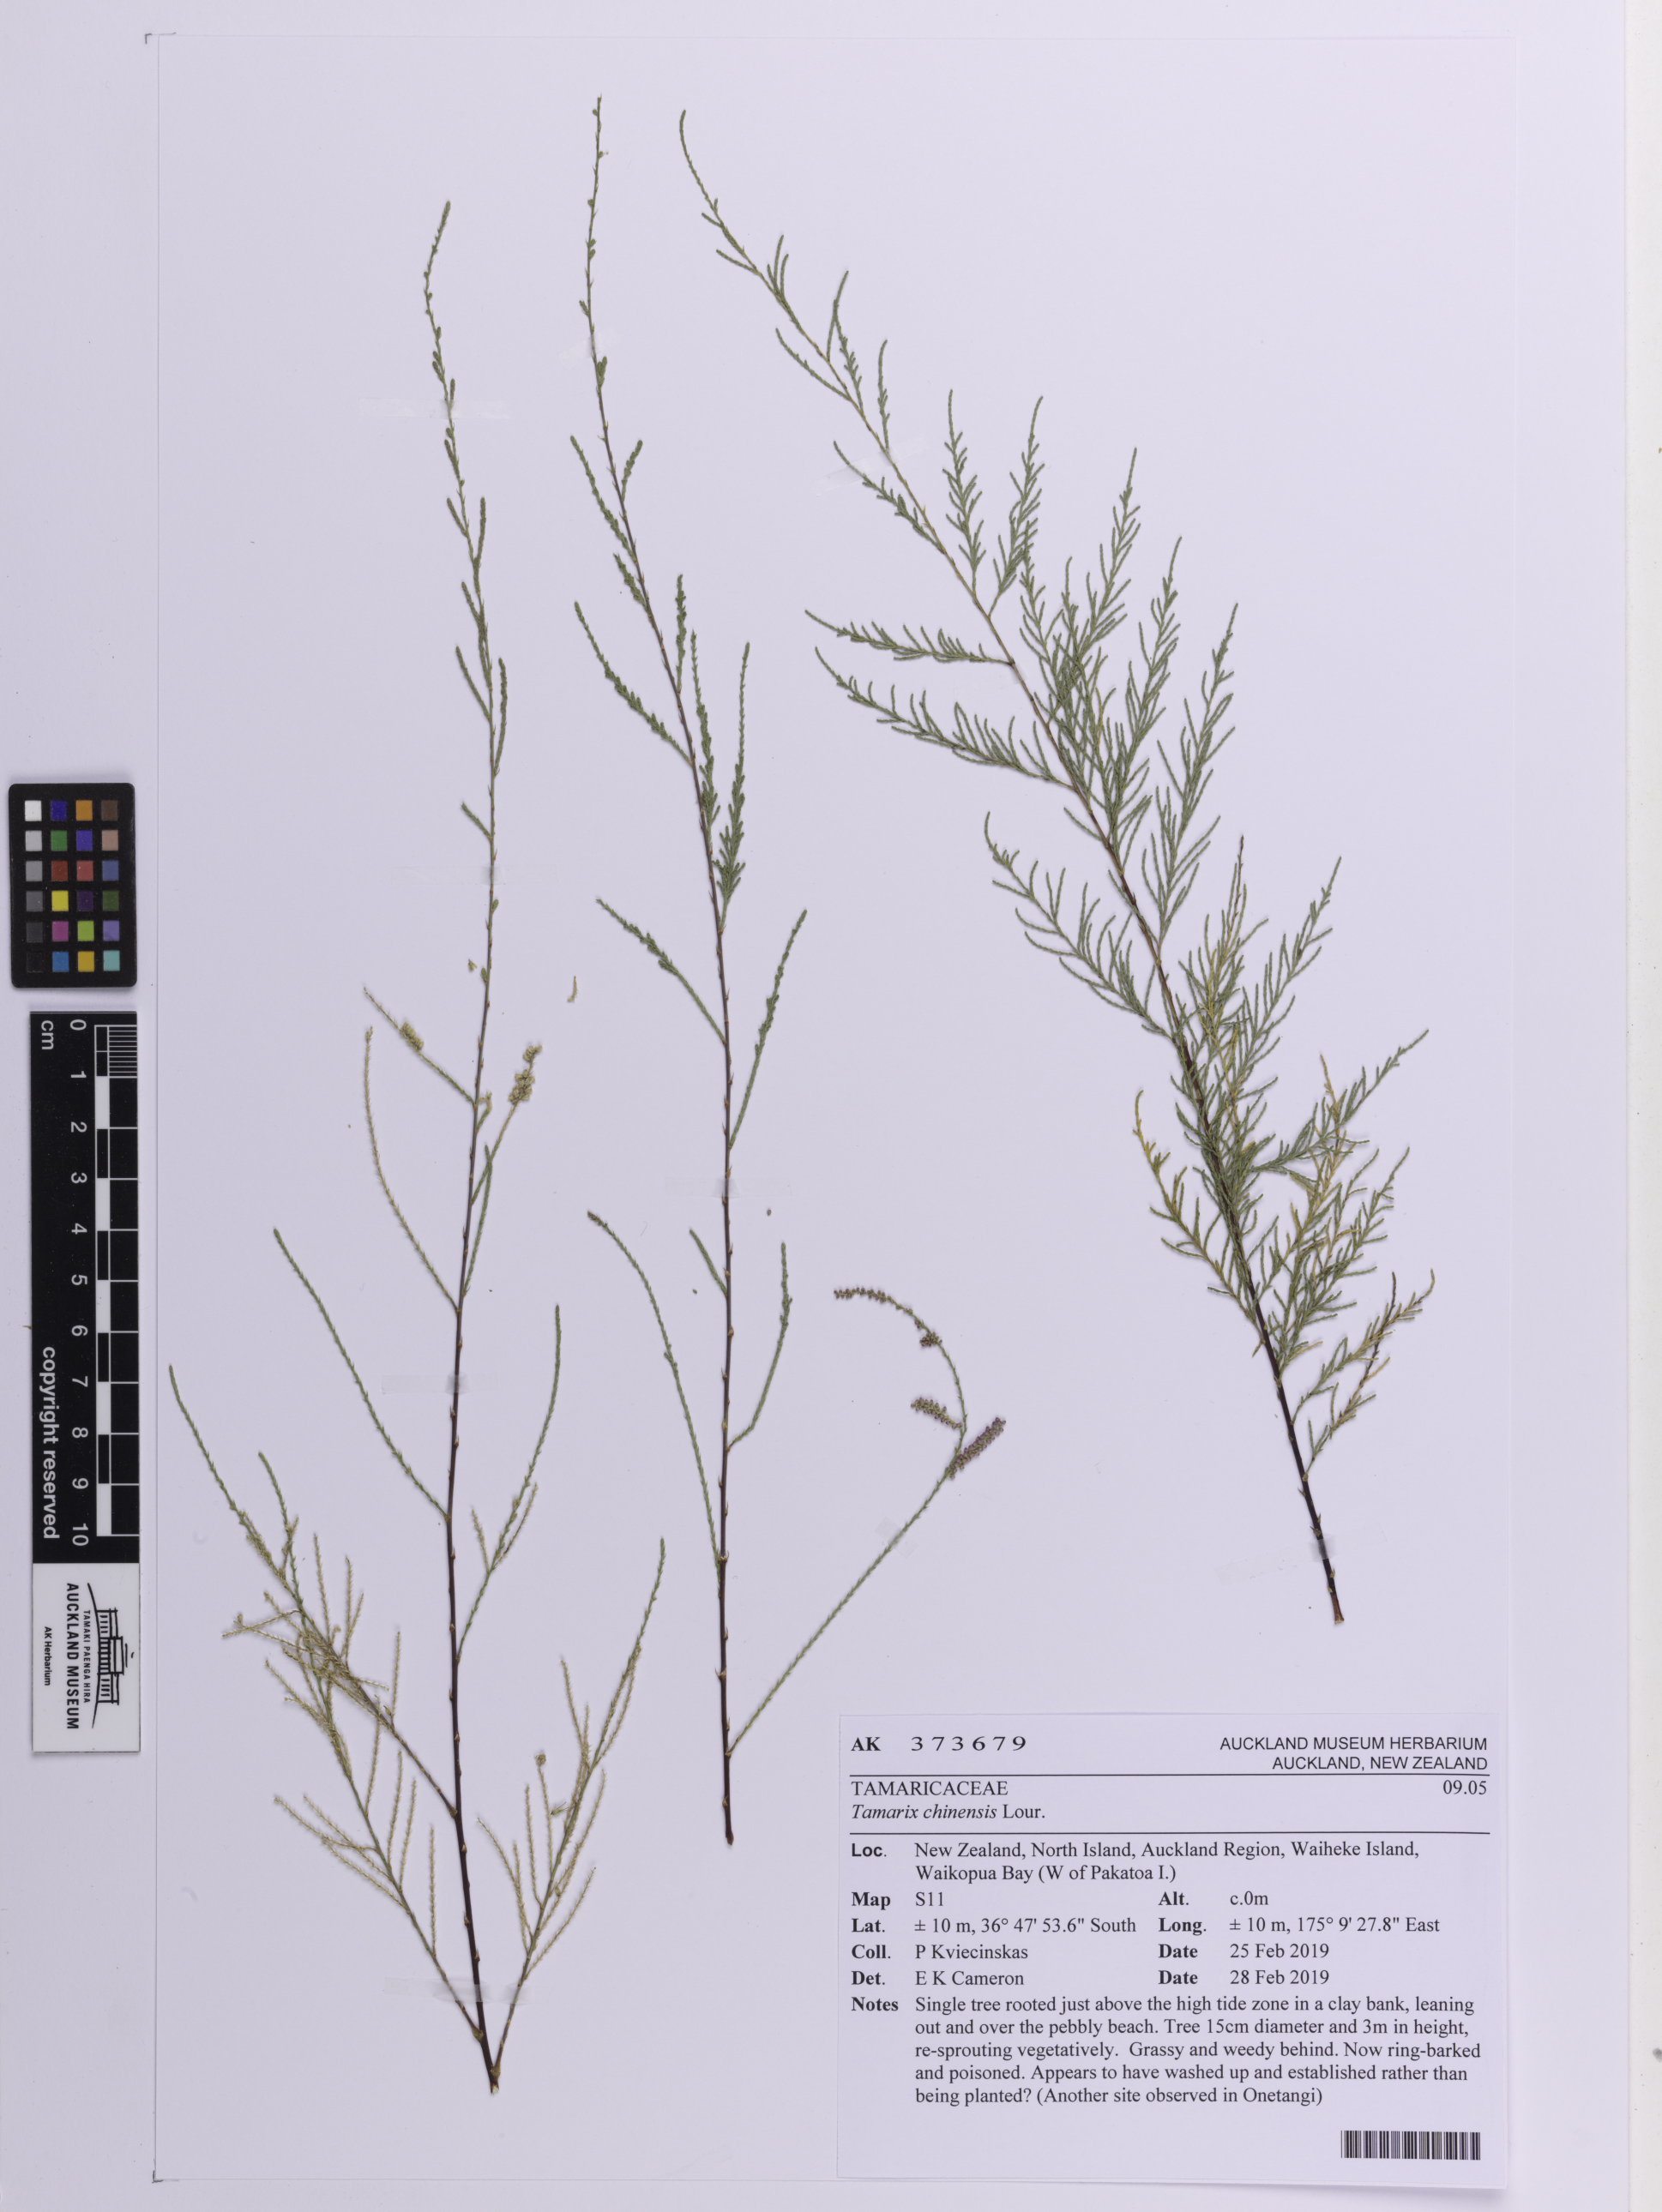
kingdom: Plantae
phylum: Tracheophyta
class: Magnoliopsida
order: Caryophyllales
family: Tamaricaceae
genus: Tamarix
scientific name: Tamarix chinensis
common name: Chinese tamarisk
